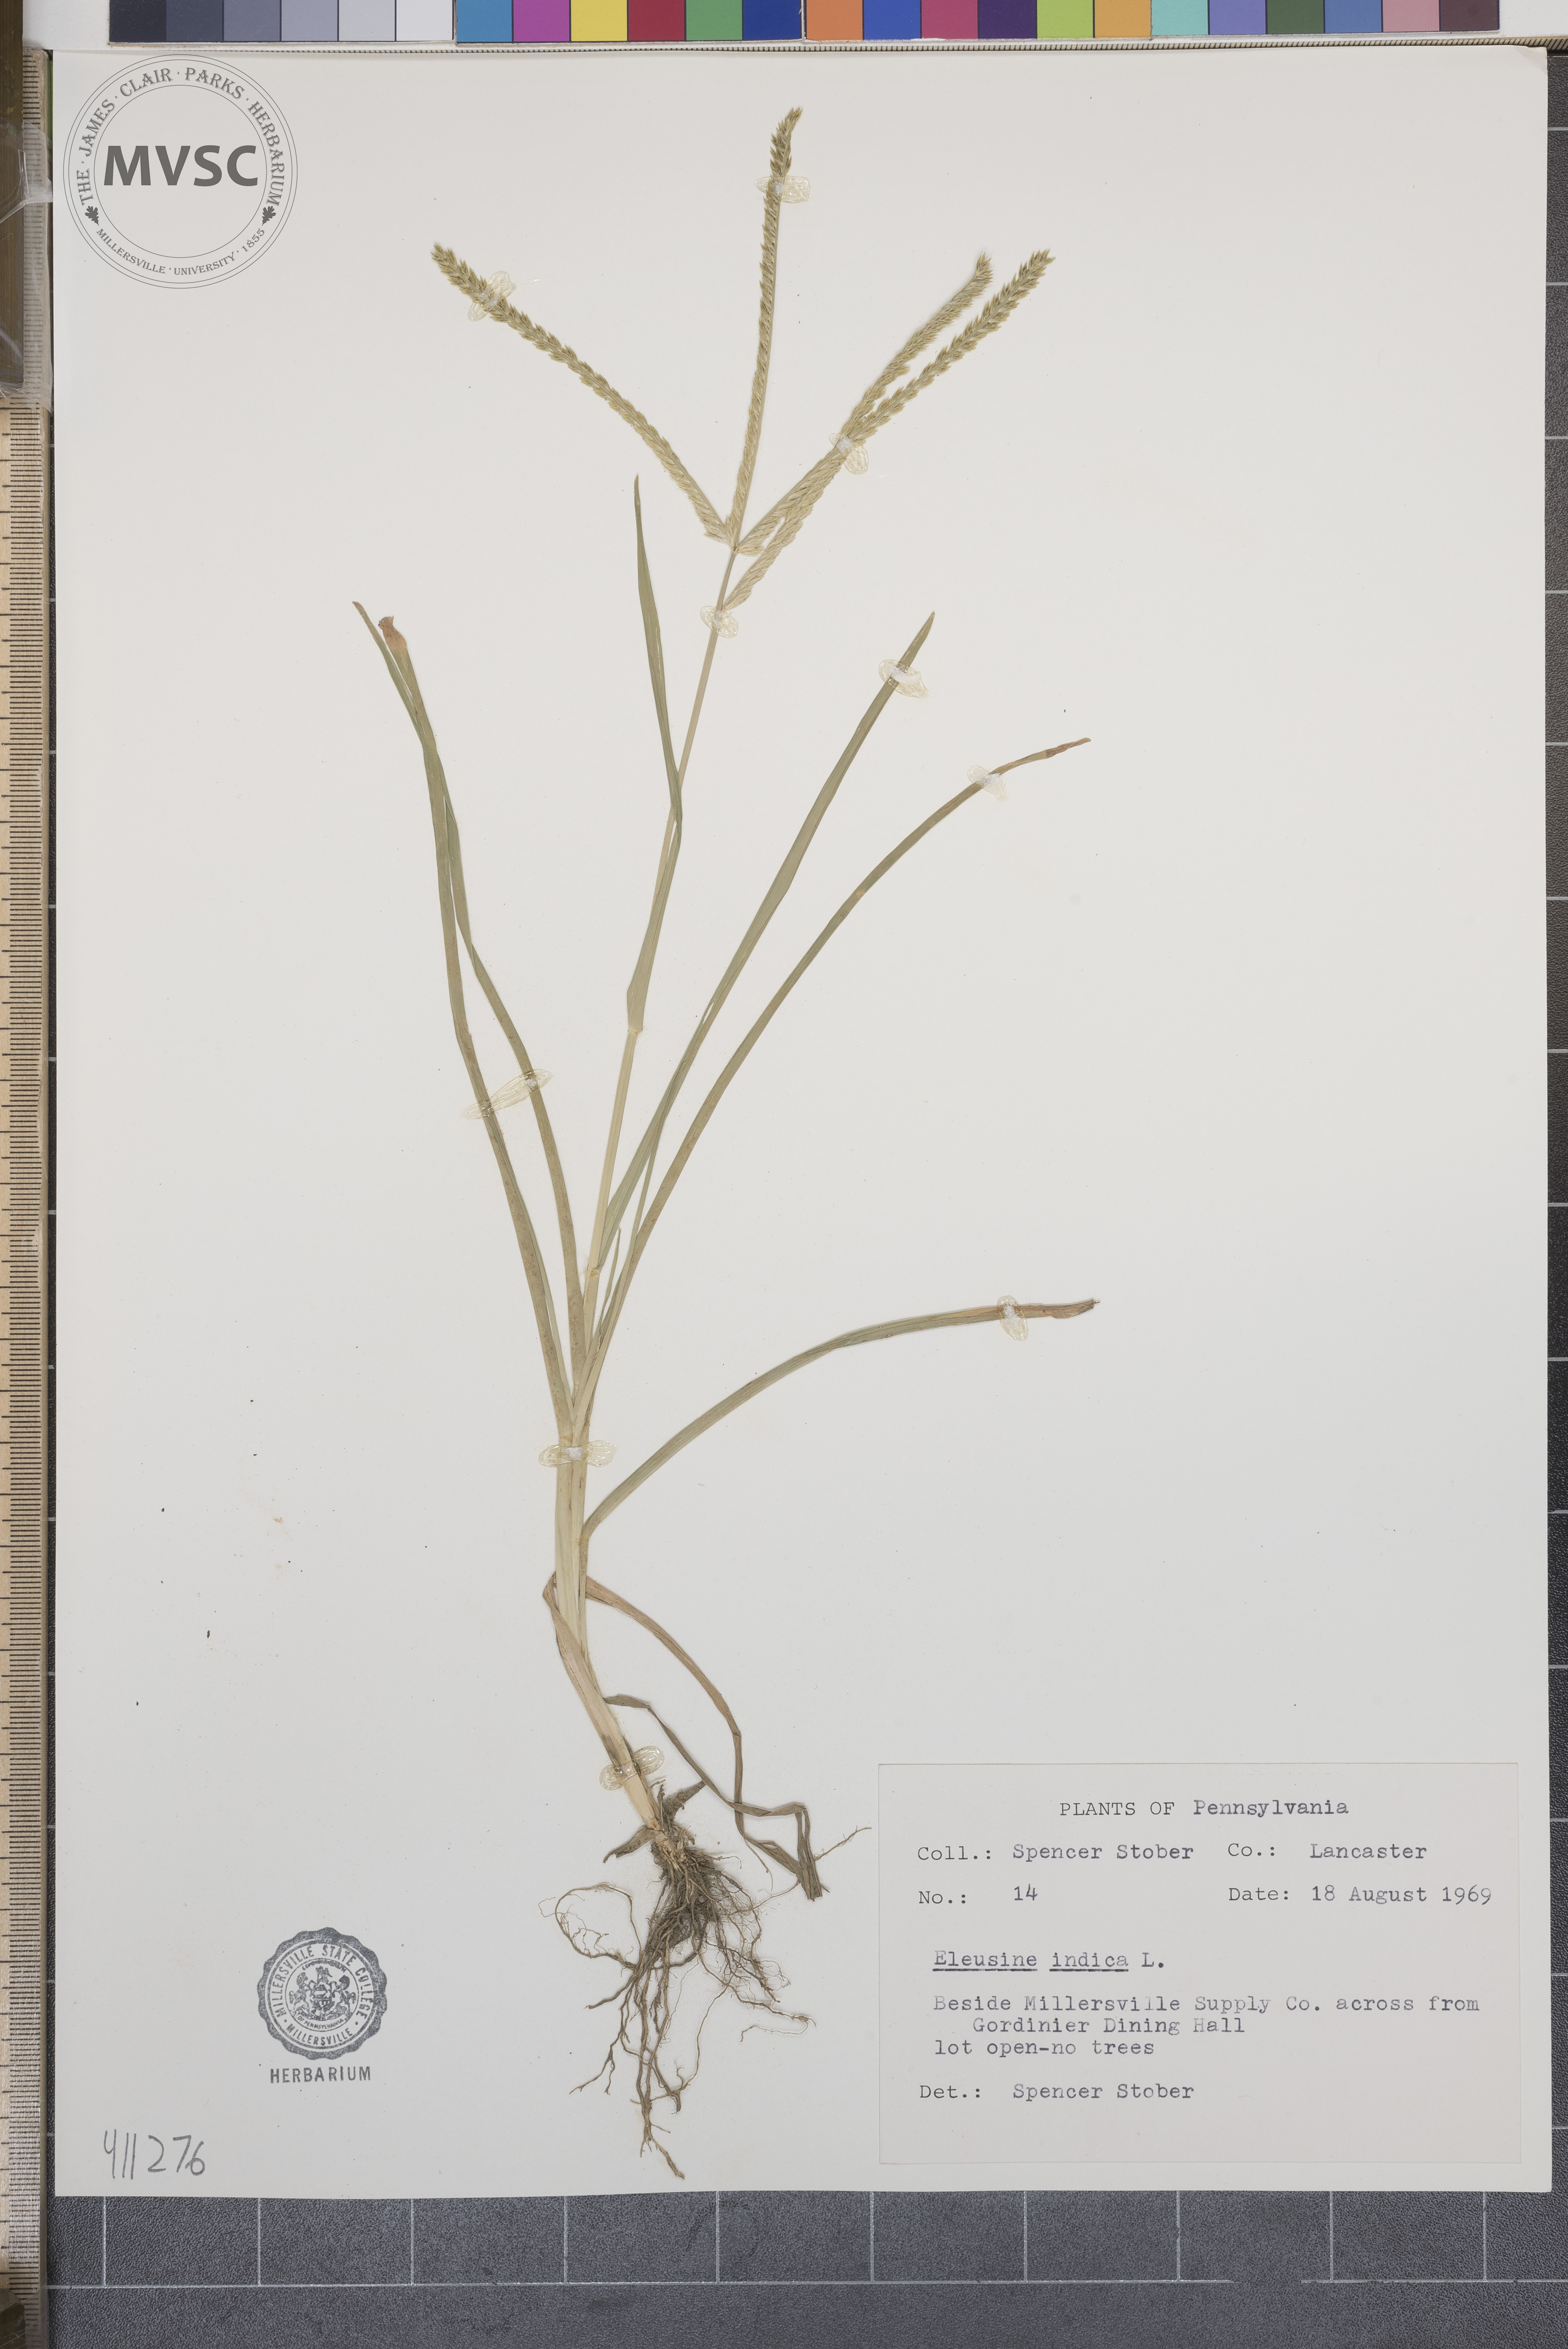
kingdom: Plantae
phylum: Tracheophyta
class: Liliopsida
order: Poales
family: Poaceae
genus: Eleusine
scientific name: Eleusine indica
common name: Yard-grass
